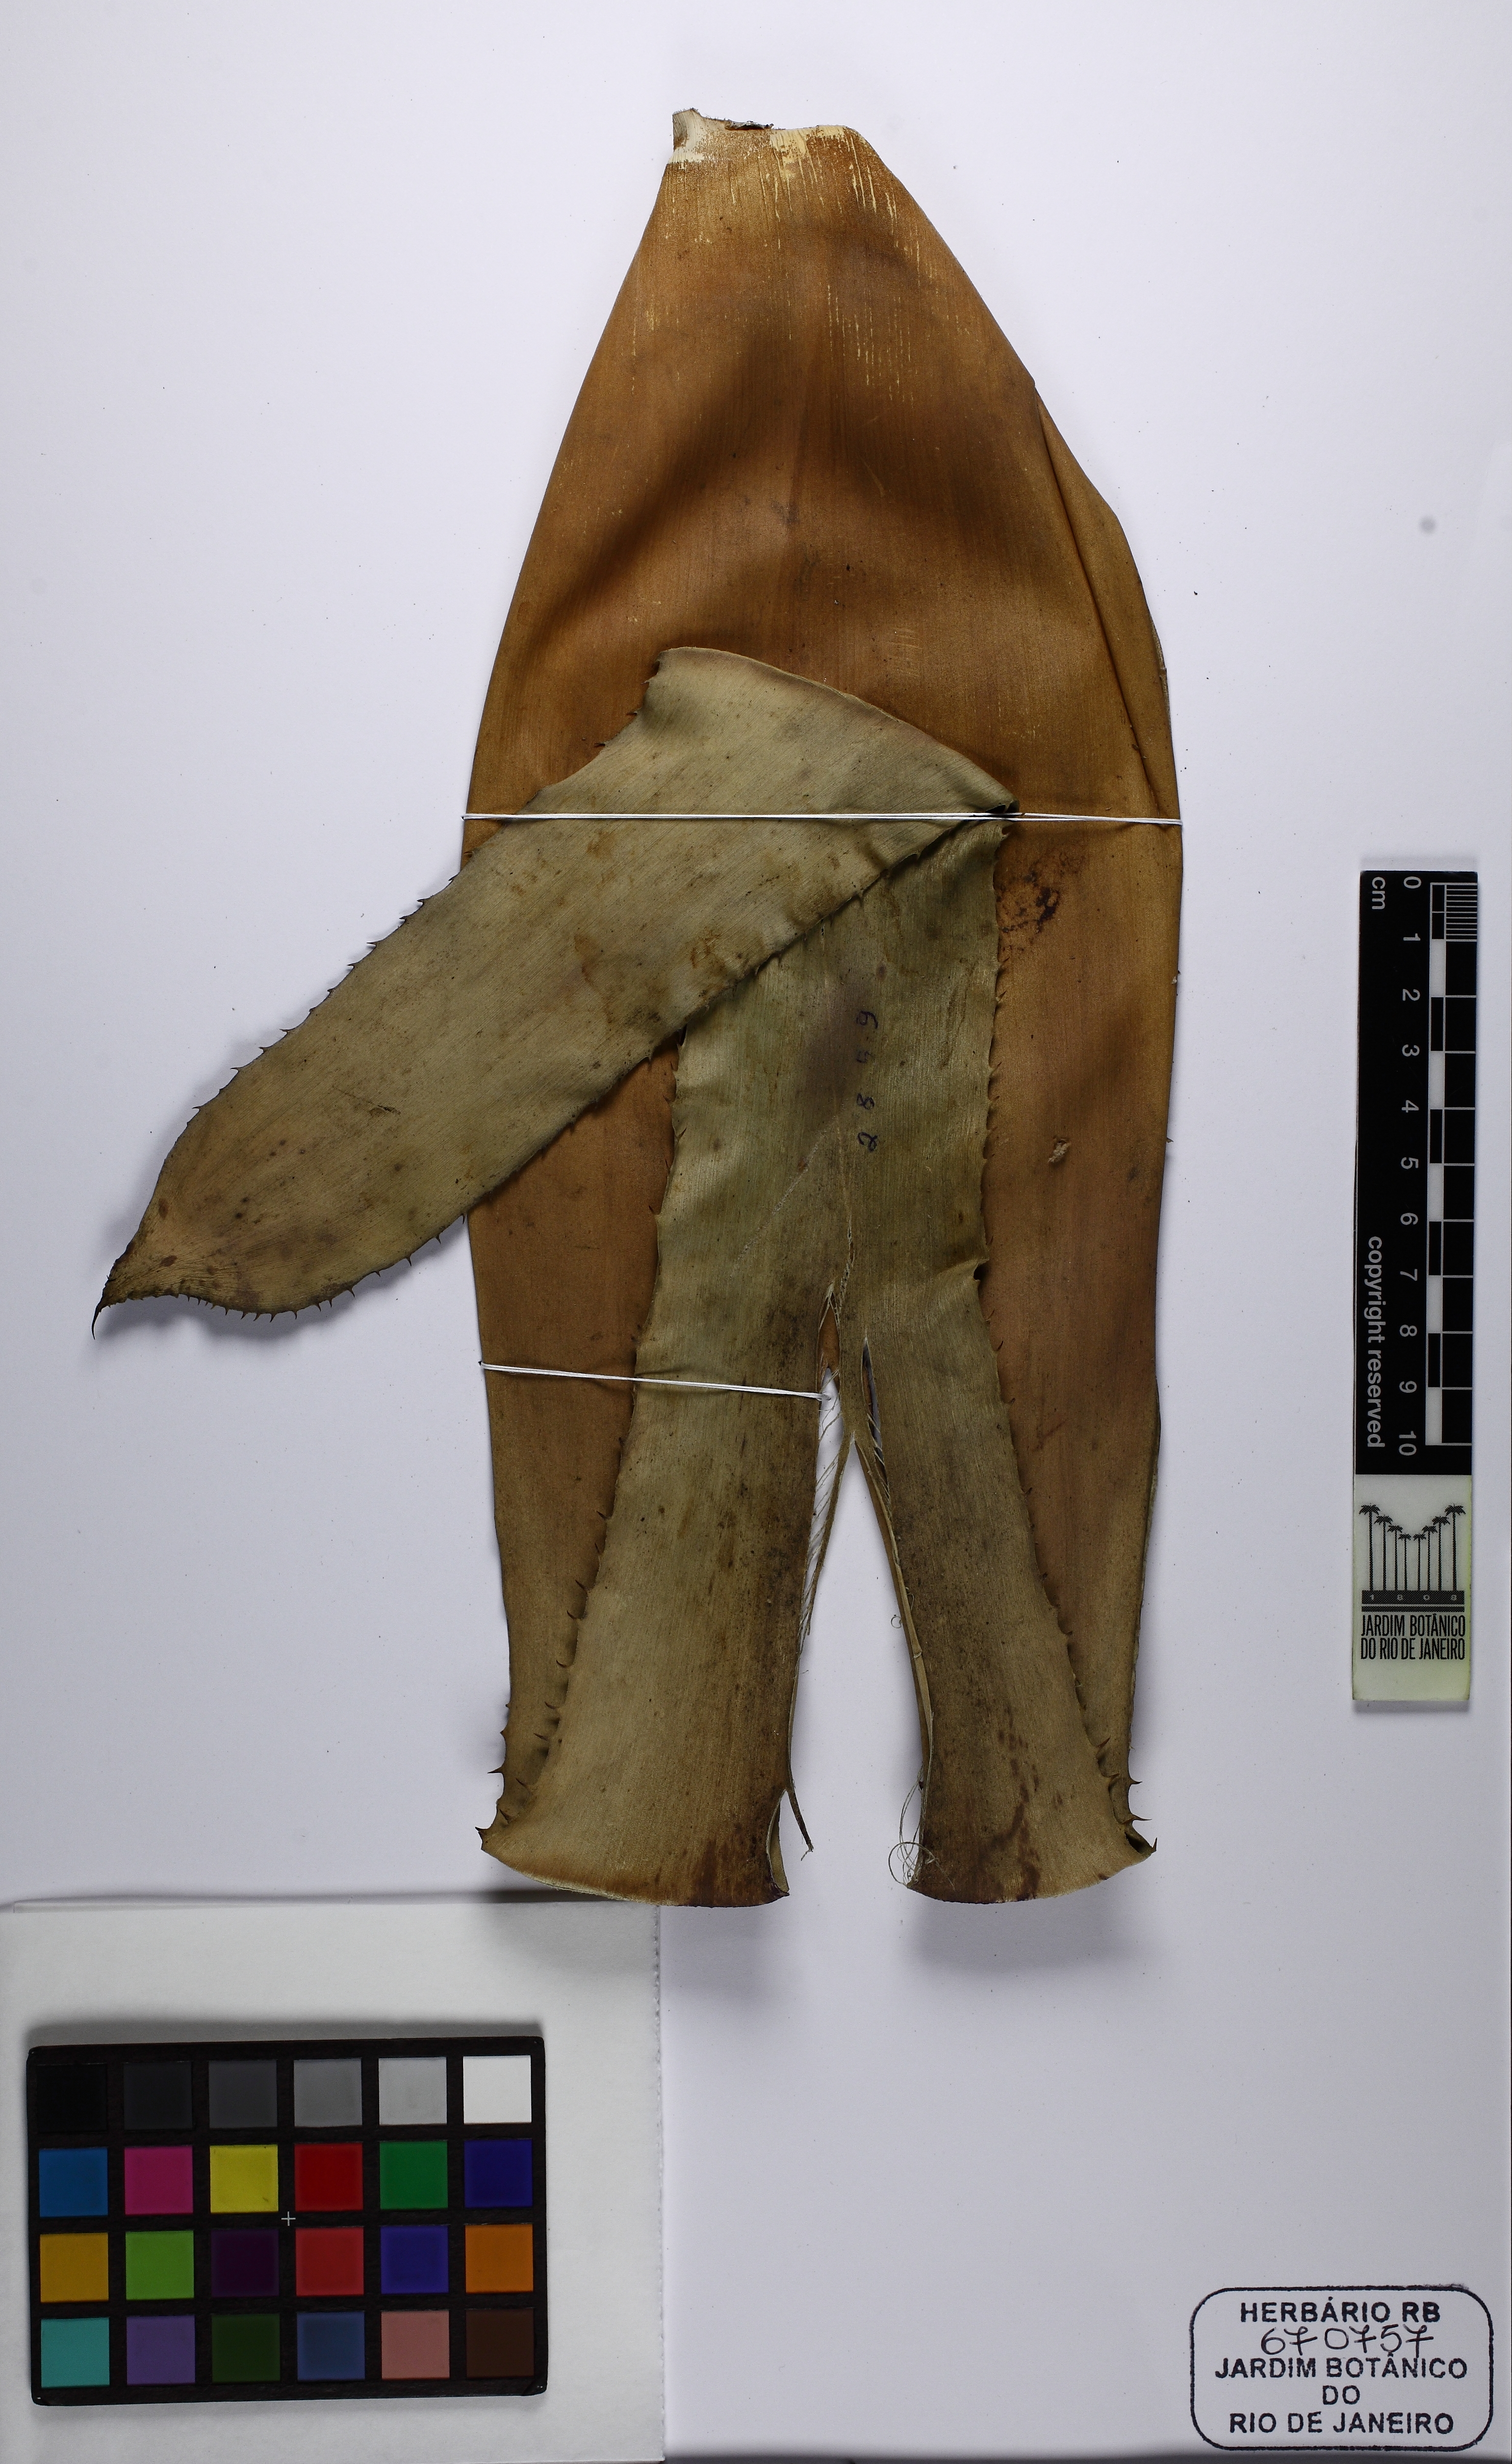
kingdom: Plantae
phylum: Tracheophyta
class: Liliopsida
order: Poales
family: Bromeliaceae
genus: Aechmea
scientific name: Aechmea milsteiniana
